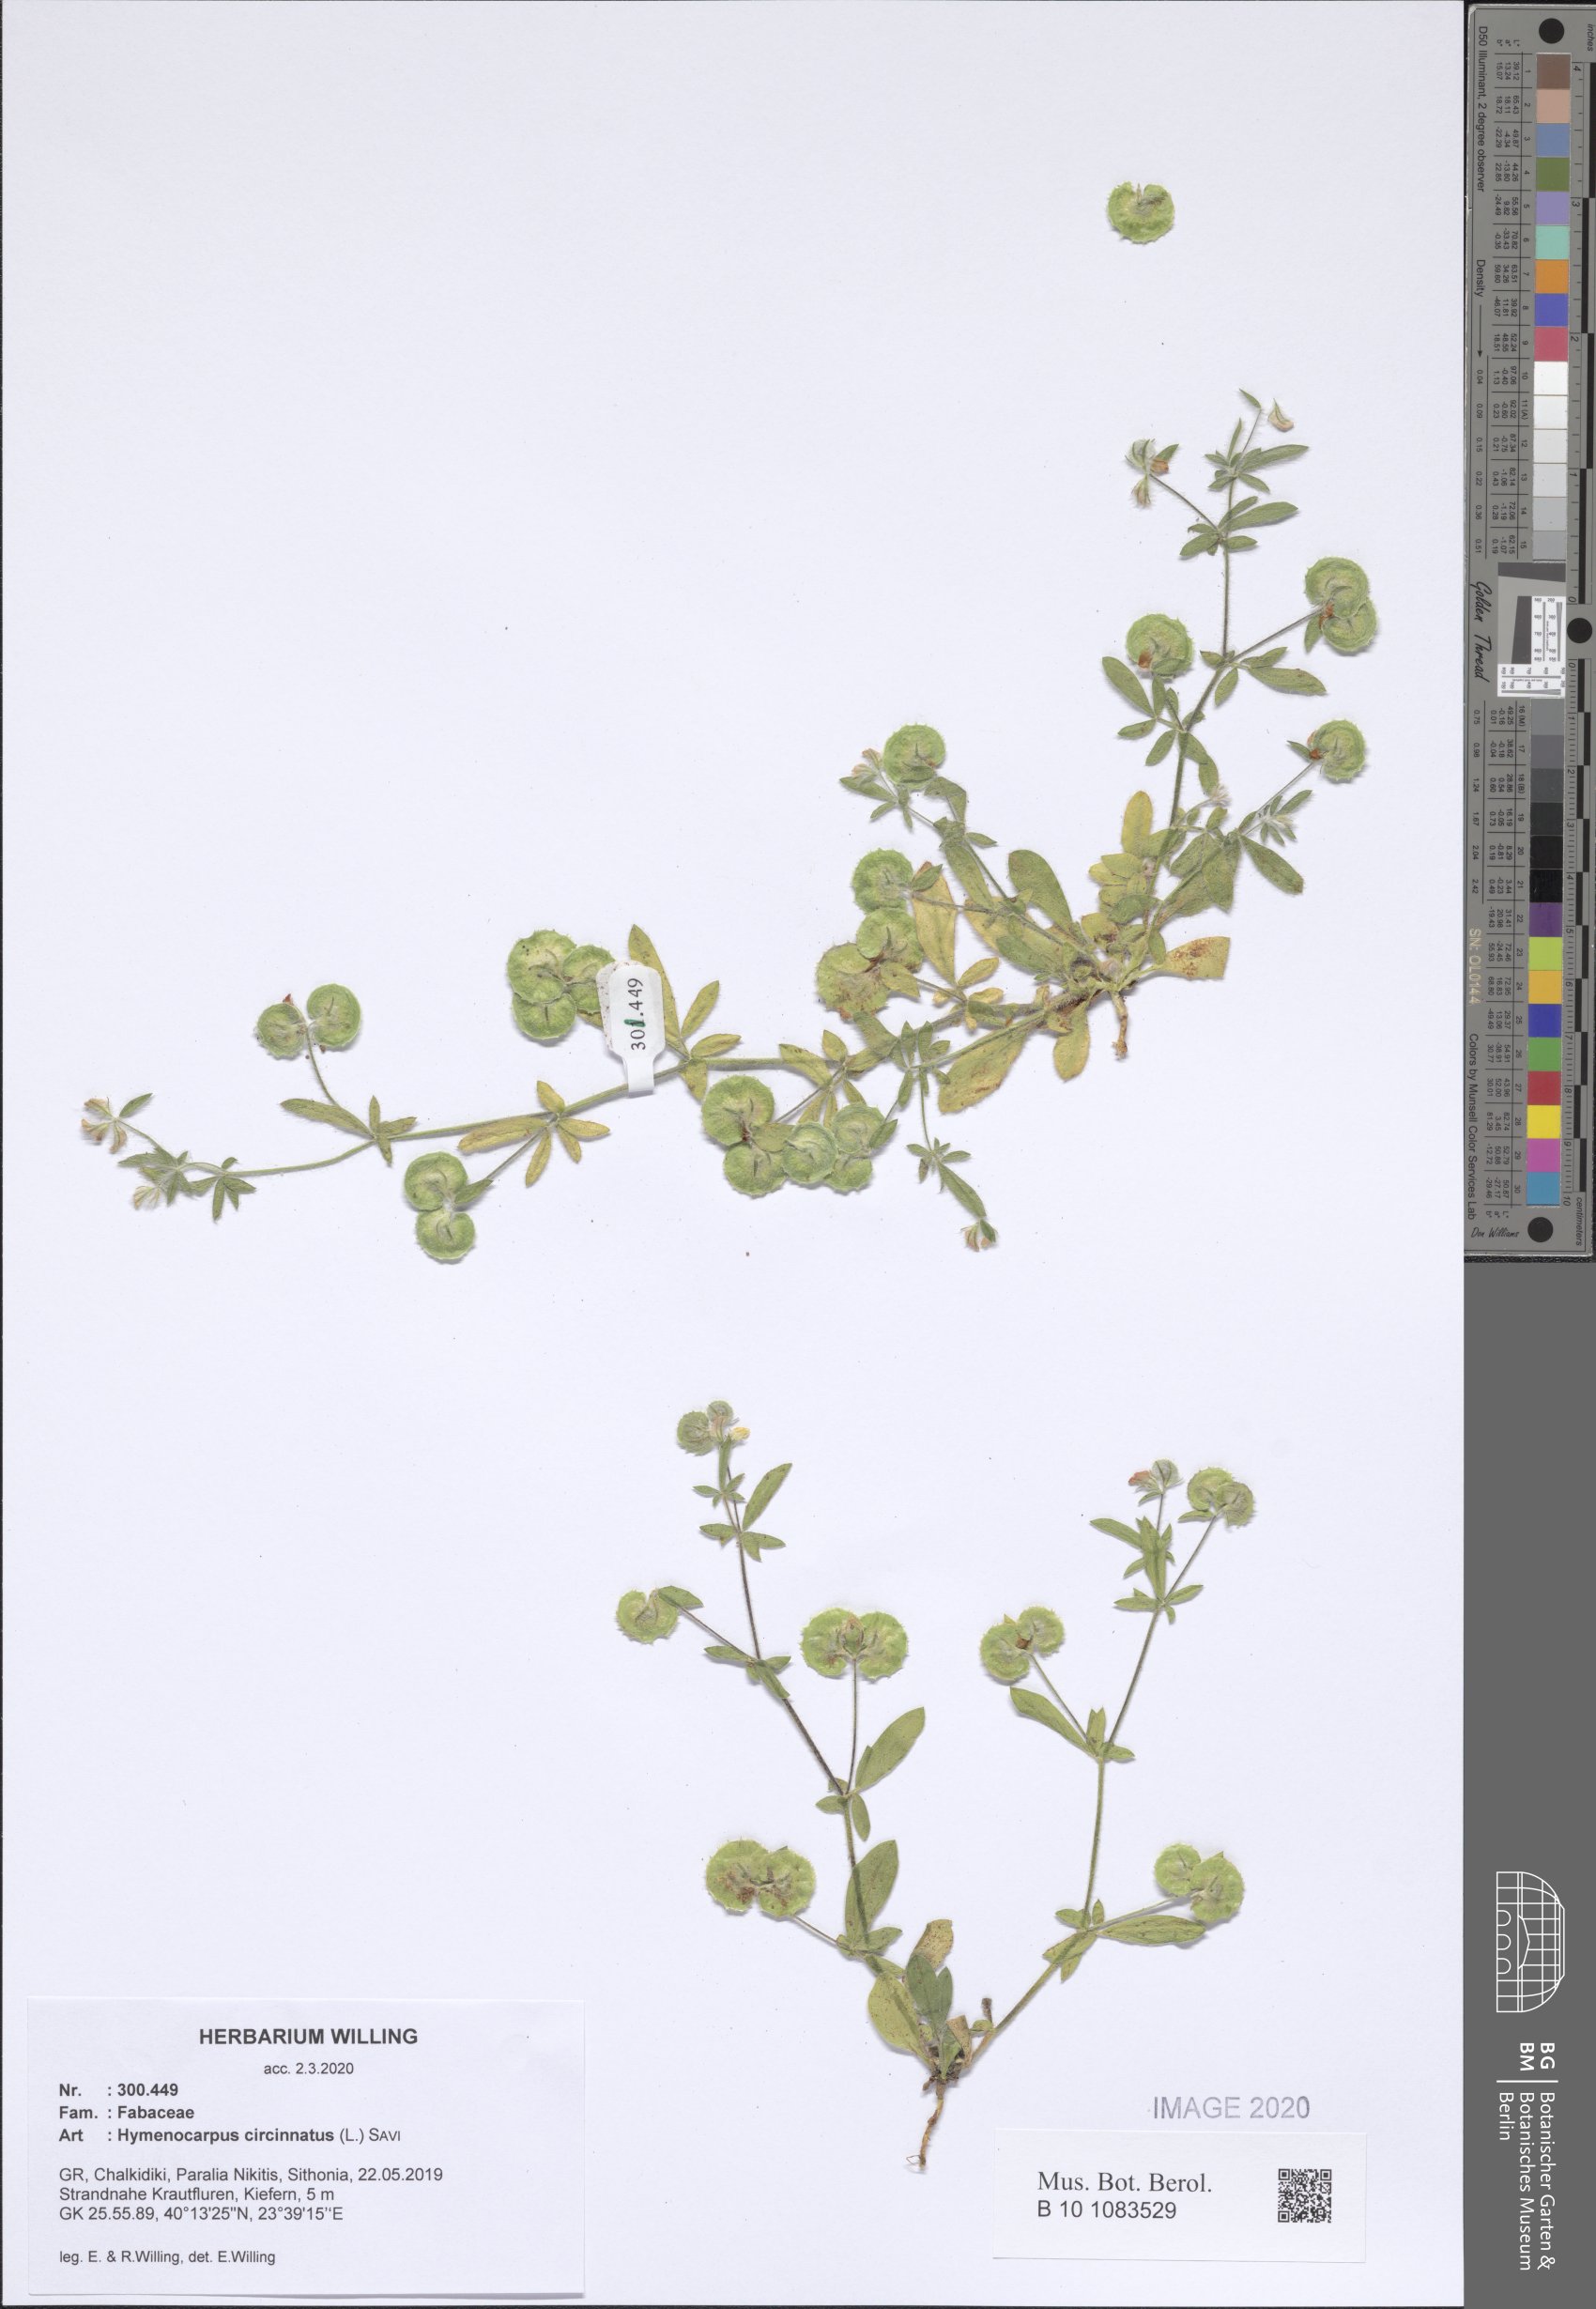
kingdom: Plantae
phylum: Tracheophyta
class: Magnoliopsida
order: Fabales
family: Fabaceae
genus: Anthyllis
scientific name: Anthyllis circinnata
